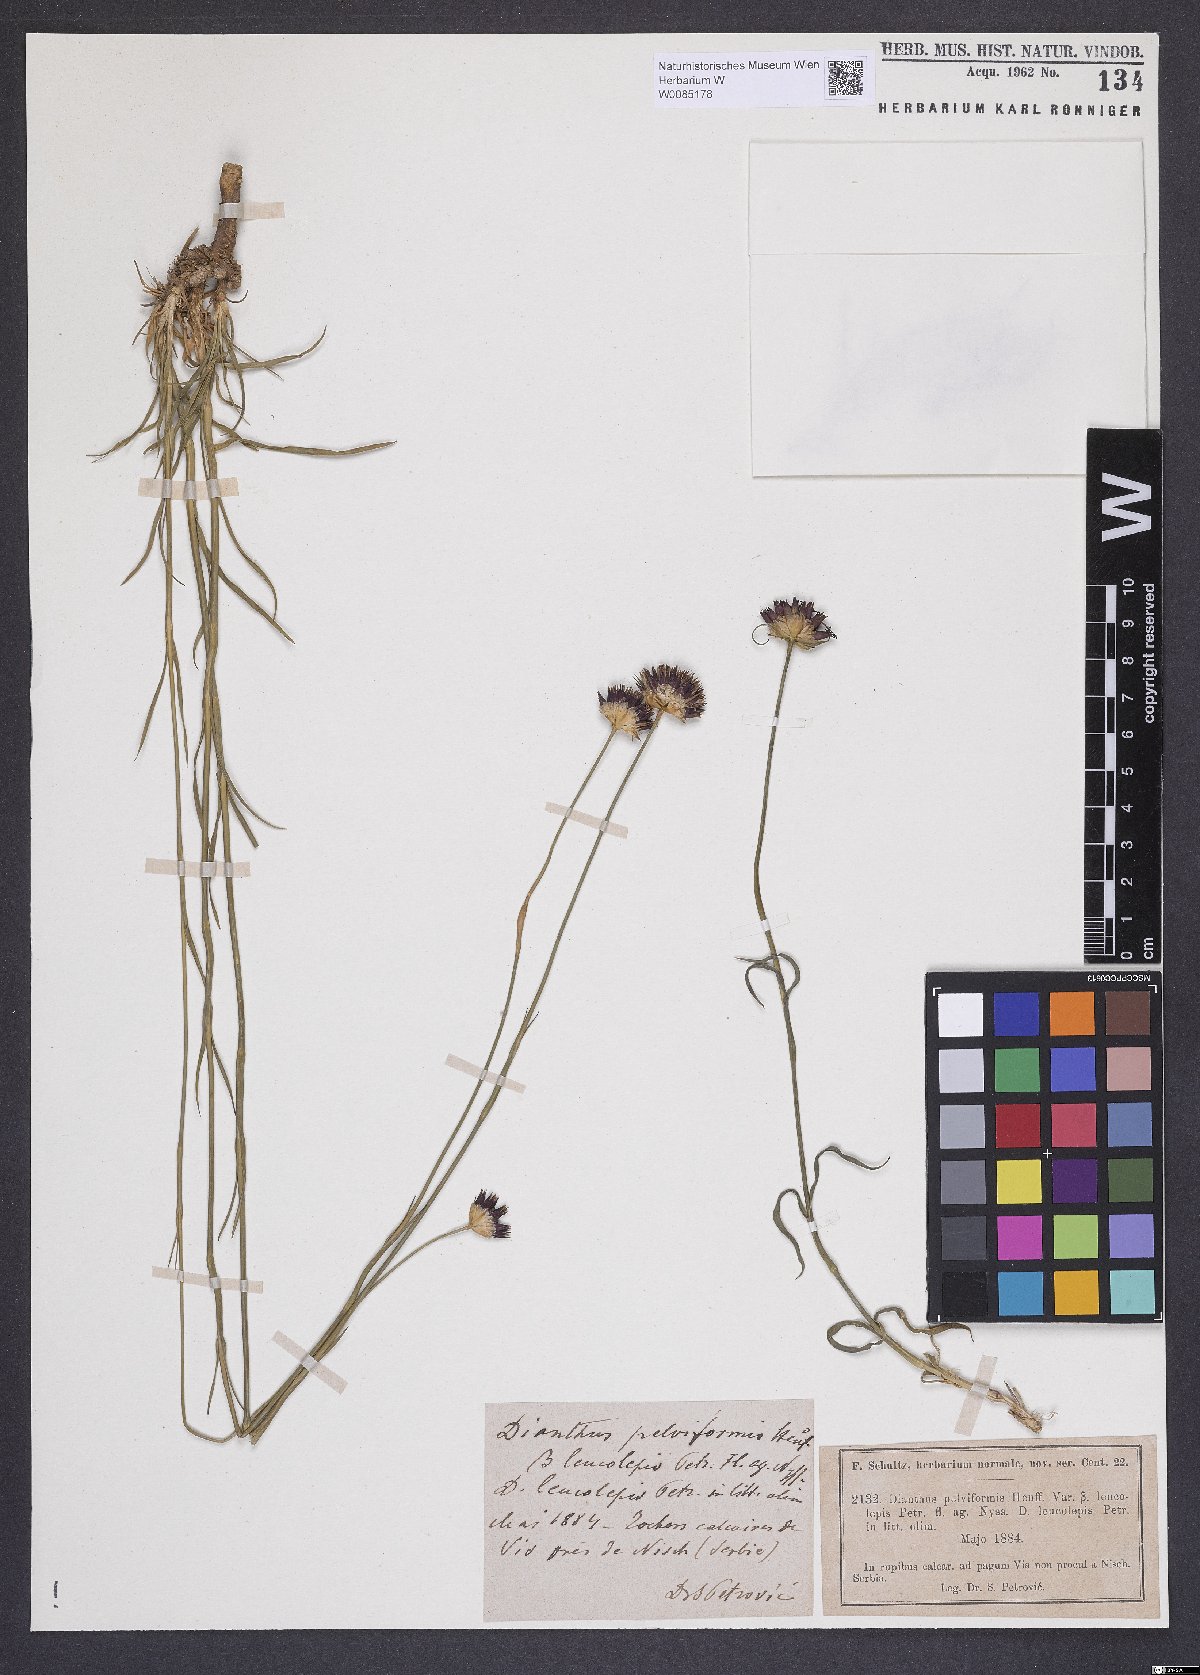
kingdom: Plantae
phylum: Tracheophyta
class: Magnoliopsida
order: Caryophyllales
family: Caryophyllaceae
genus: Dianthus
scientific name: Dianthus pelviformis
